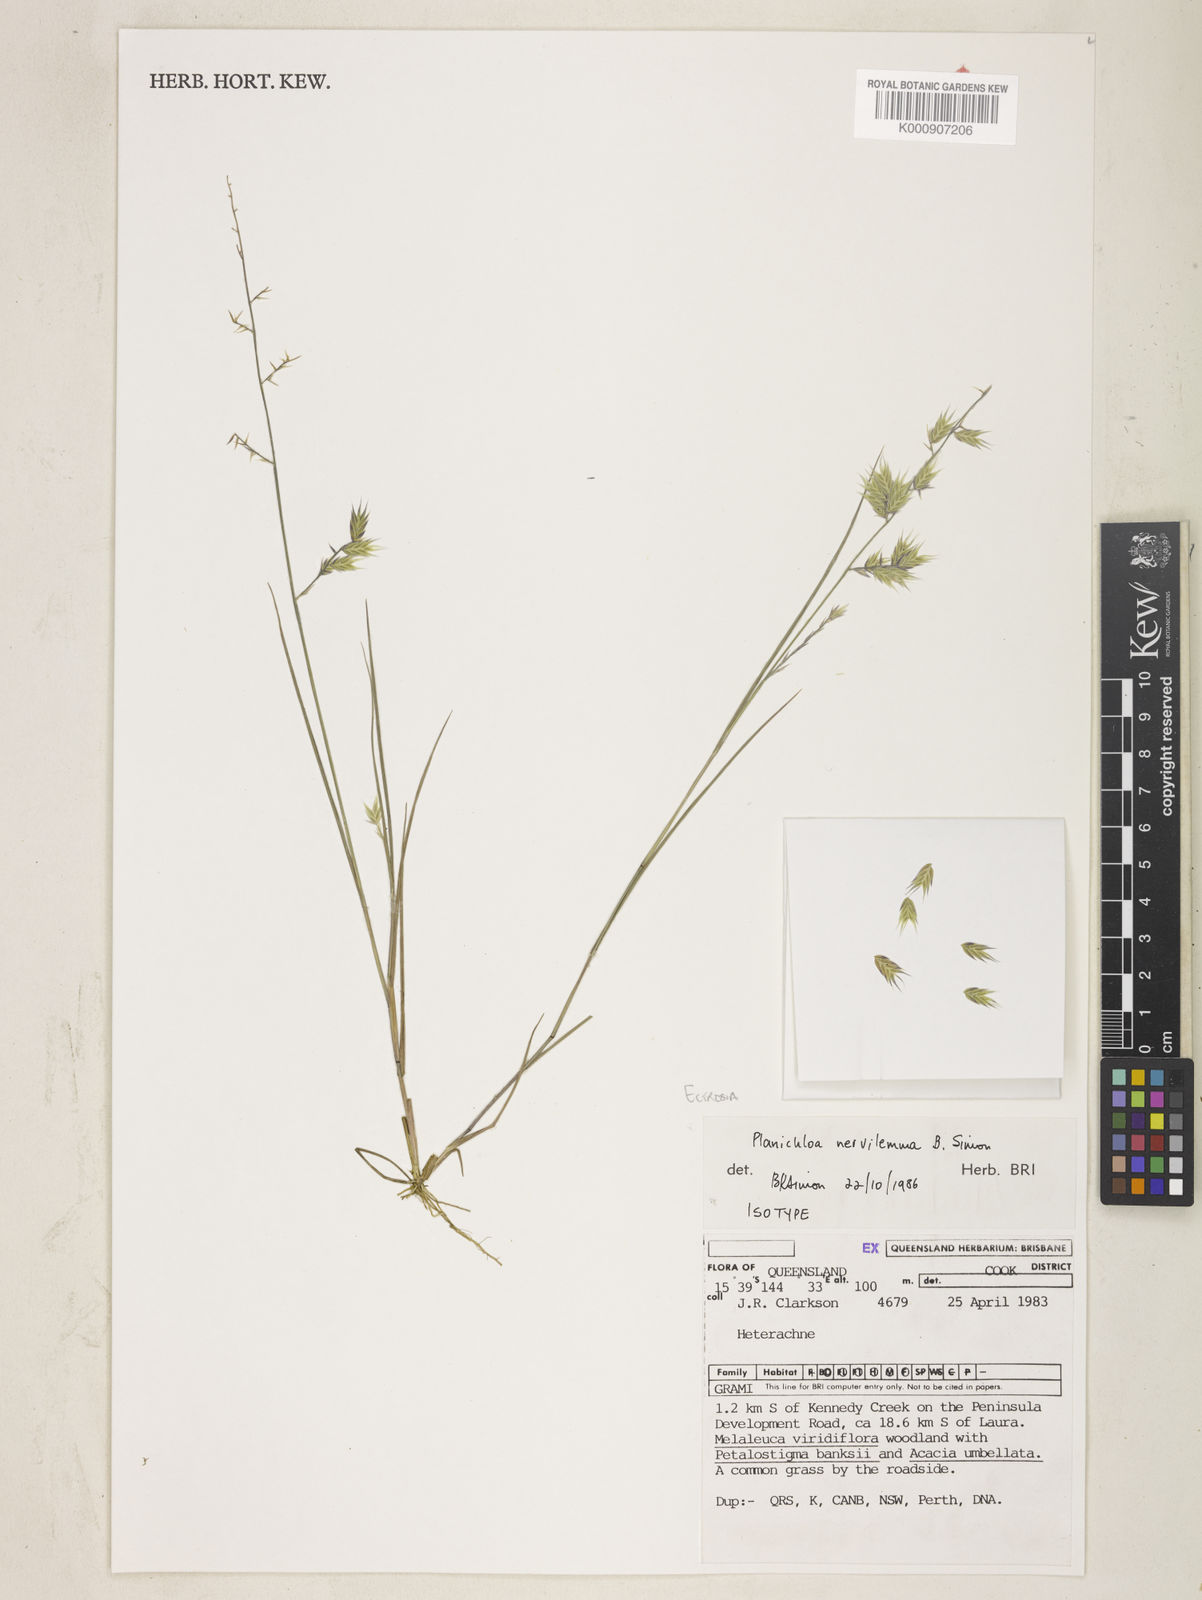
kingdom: Plantae
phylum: Tracheophyta
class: Liliopsida
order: Poales
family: Poaceae
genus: Eragrostis
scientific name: Eragrostis nervilemma
